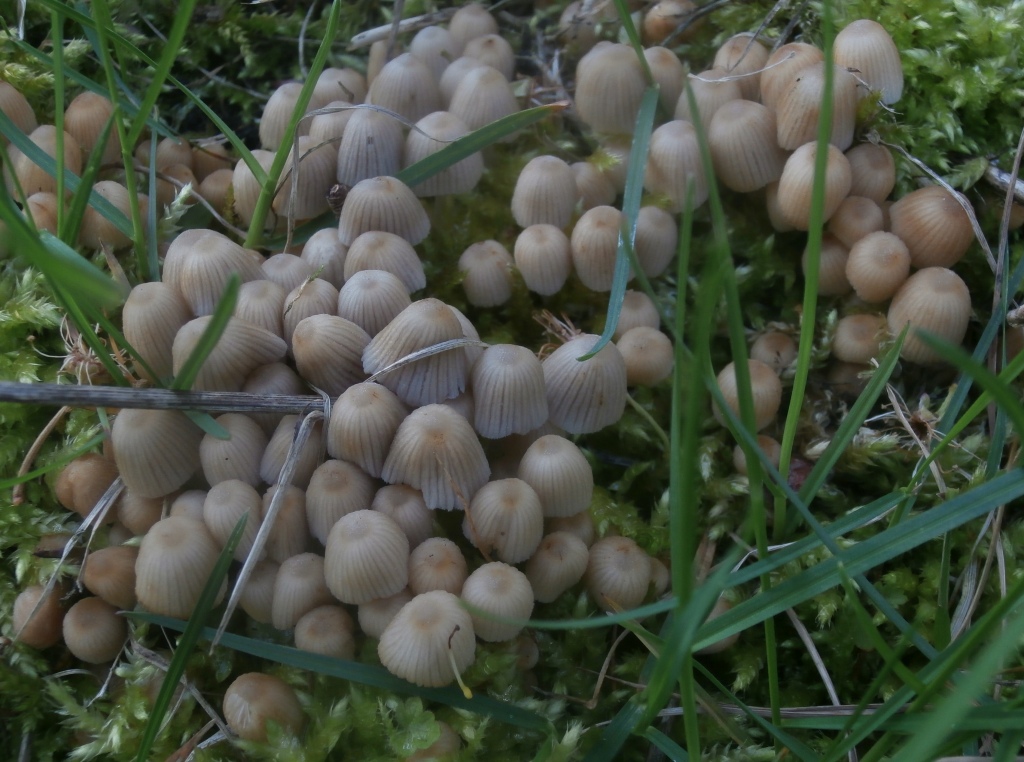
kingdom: Fungi
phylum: Basidiomycota
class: Agaricomycetes
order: Agaricales
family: Psathyrellaceae
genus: Coprinellus
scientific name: Coprinellus disseminatus
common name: bredsået blækhat
